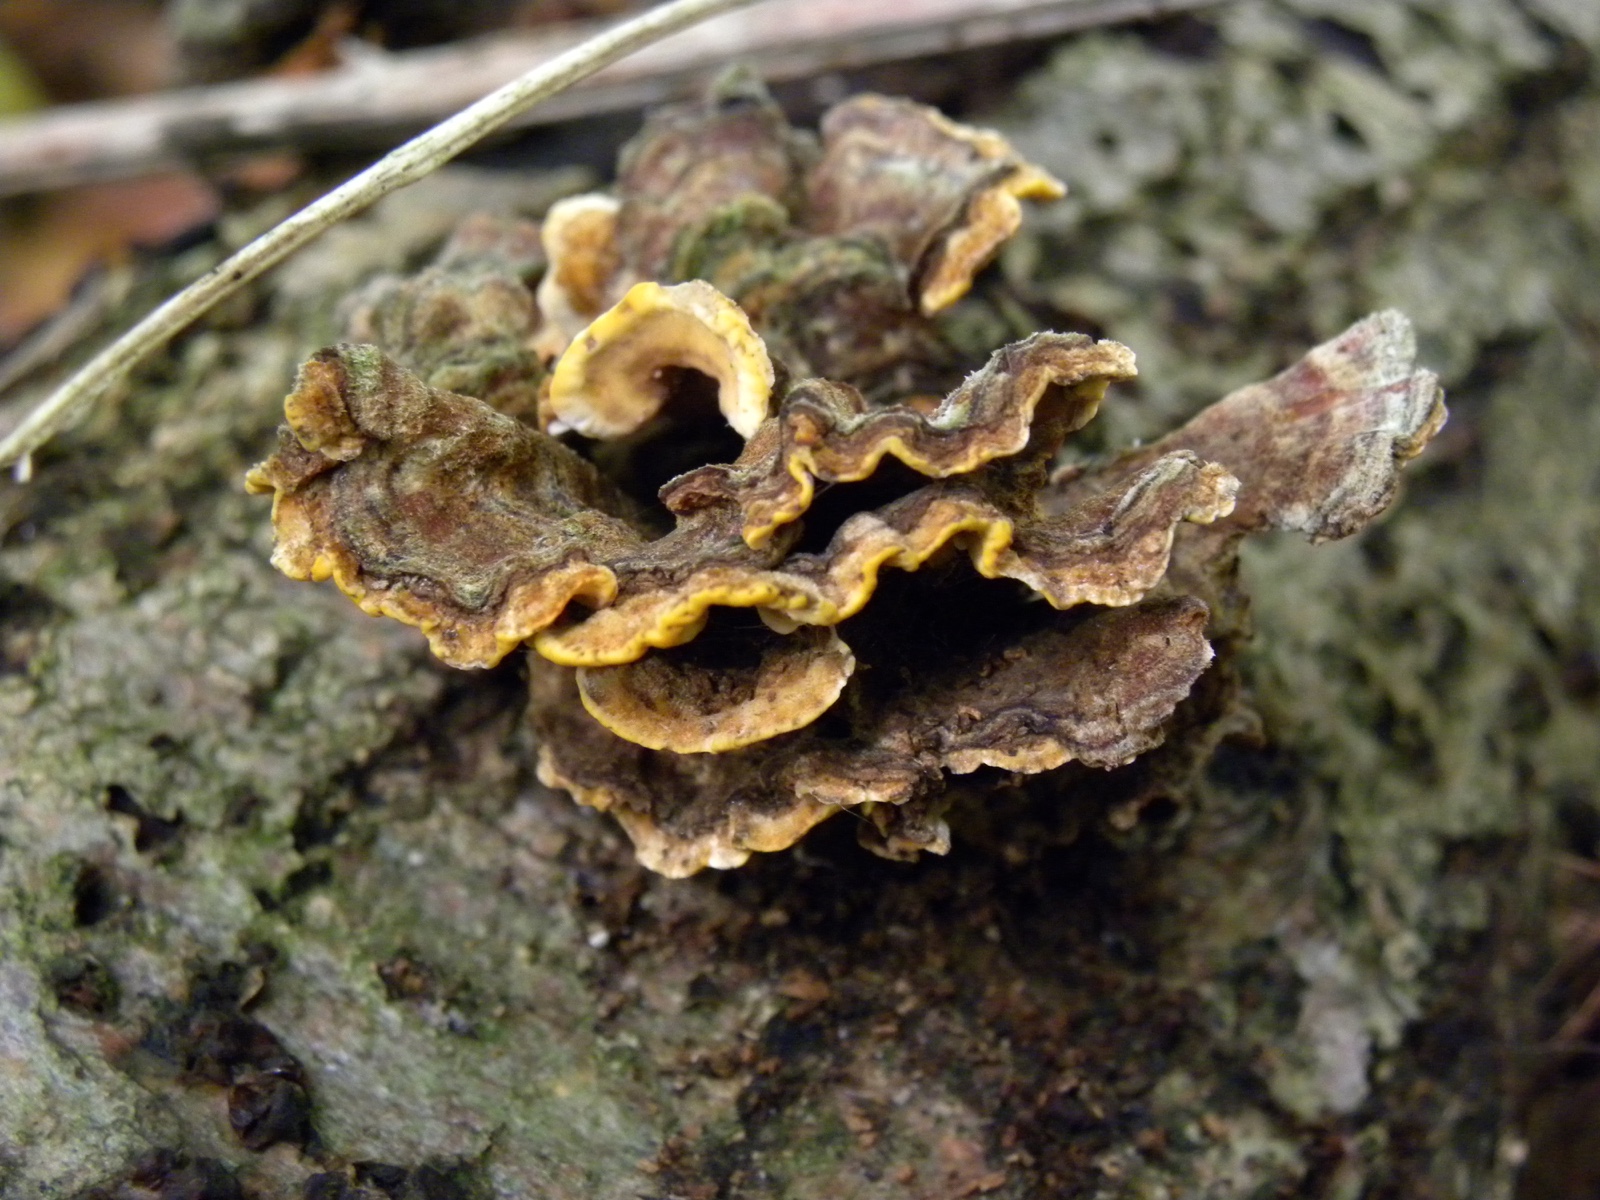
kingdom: Fungi
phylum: Basidiomycota
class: Agaricomycetes
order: Russulales
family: Stereaceae
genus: Stereum
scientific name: Stereum hirsutum
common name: håret lædersvamp
